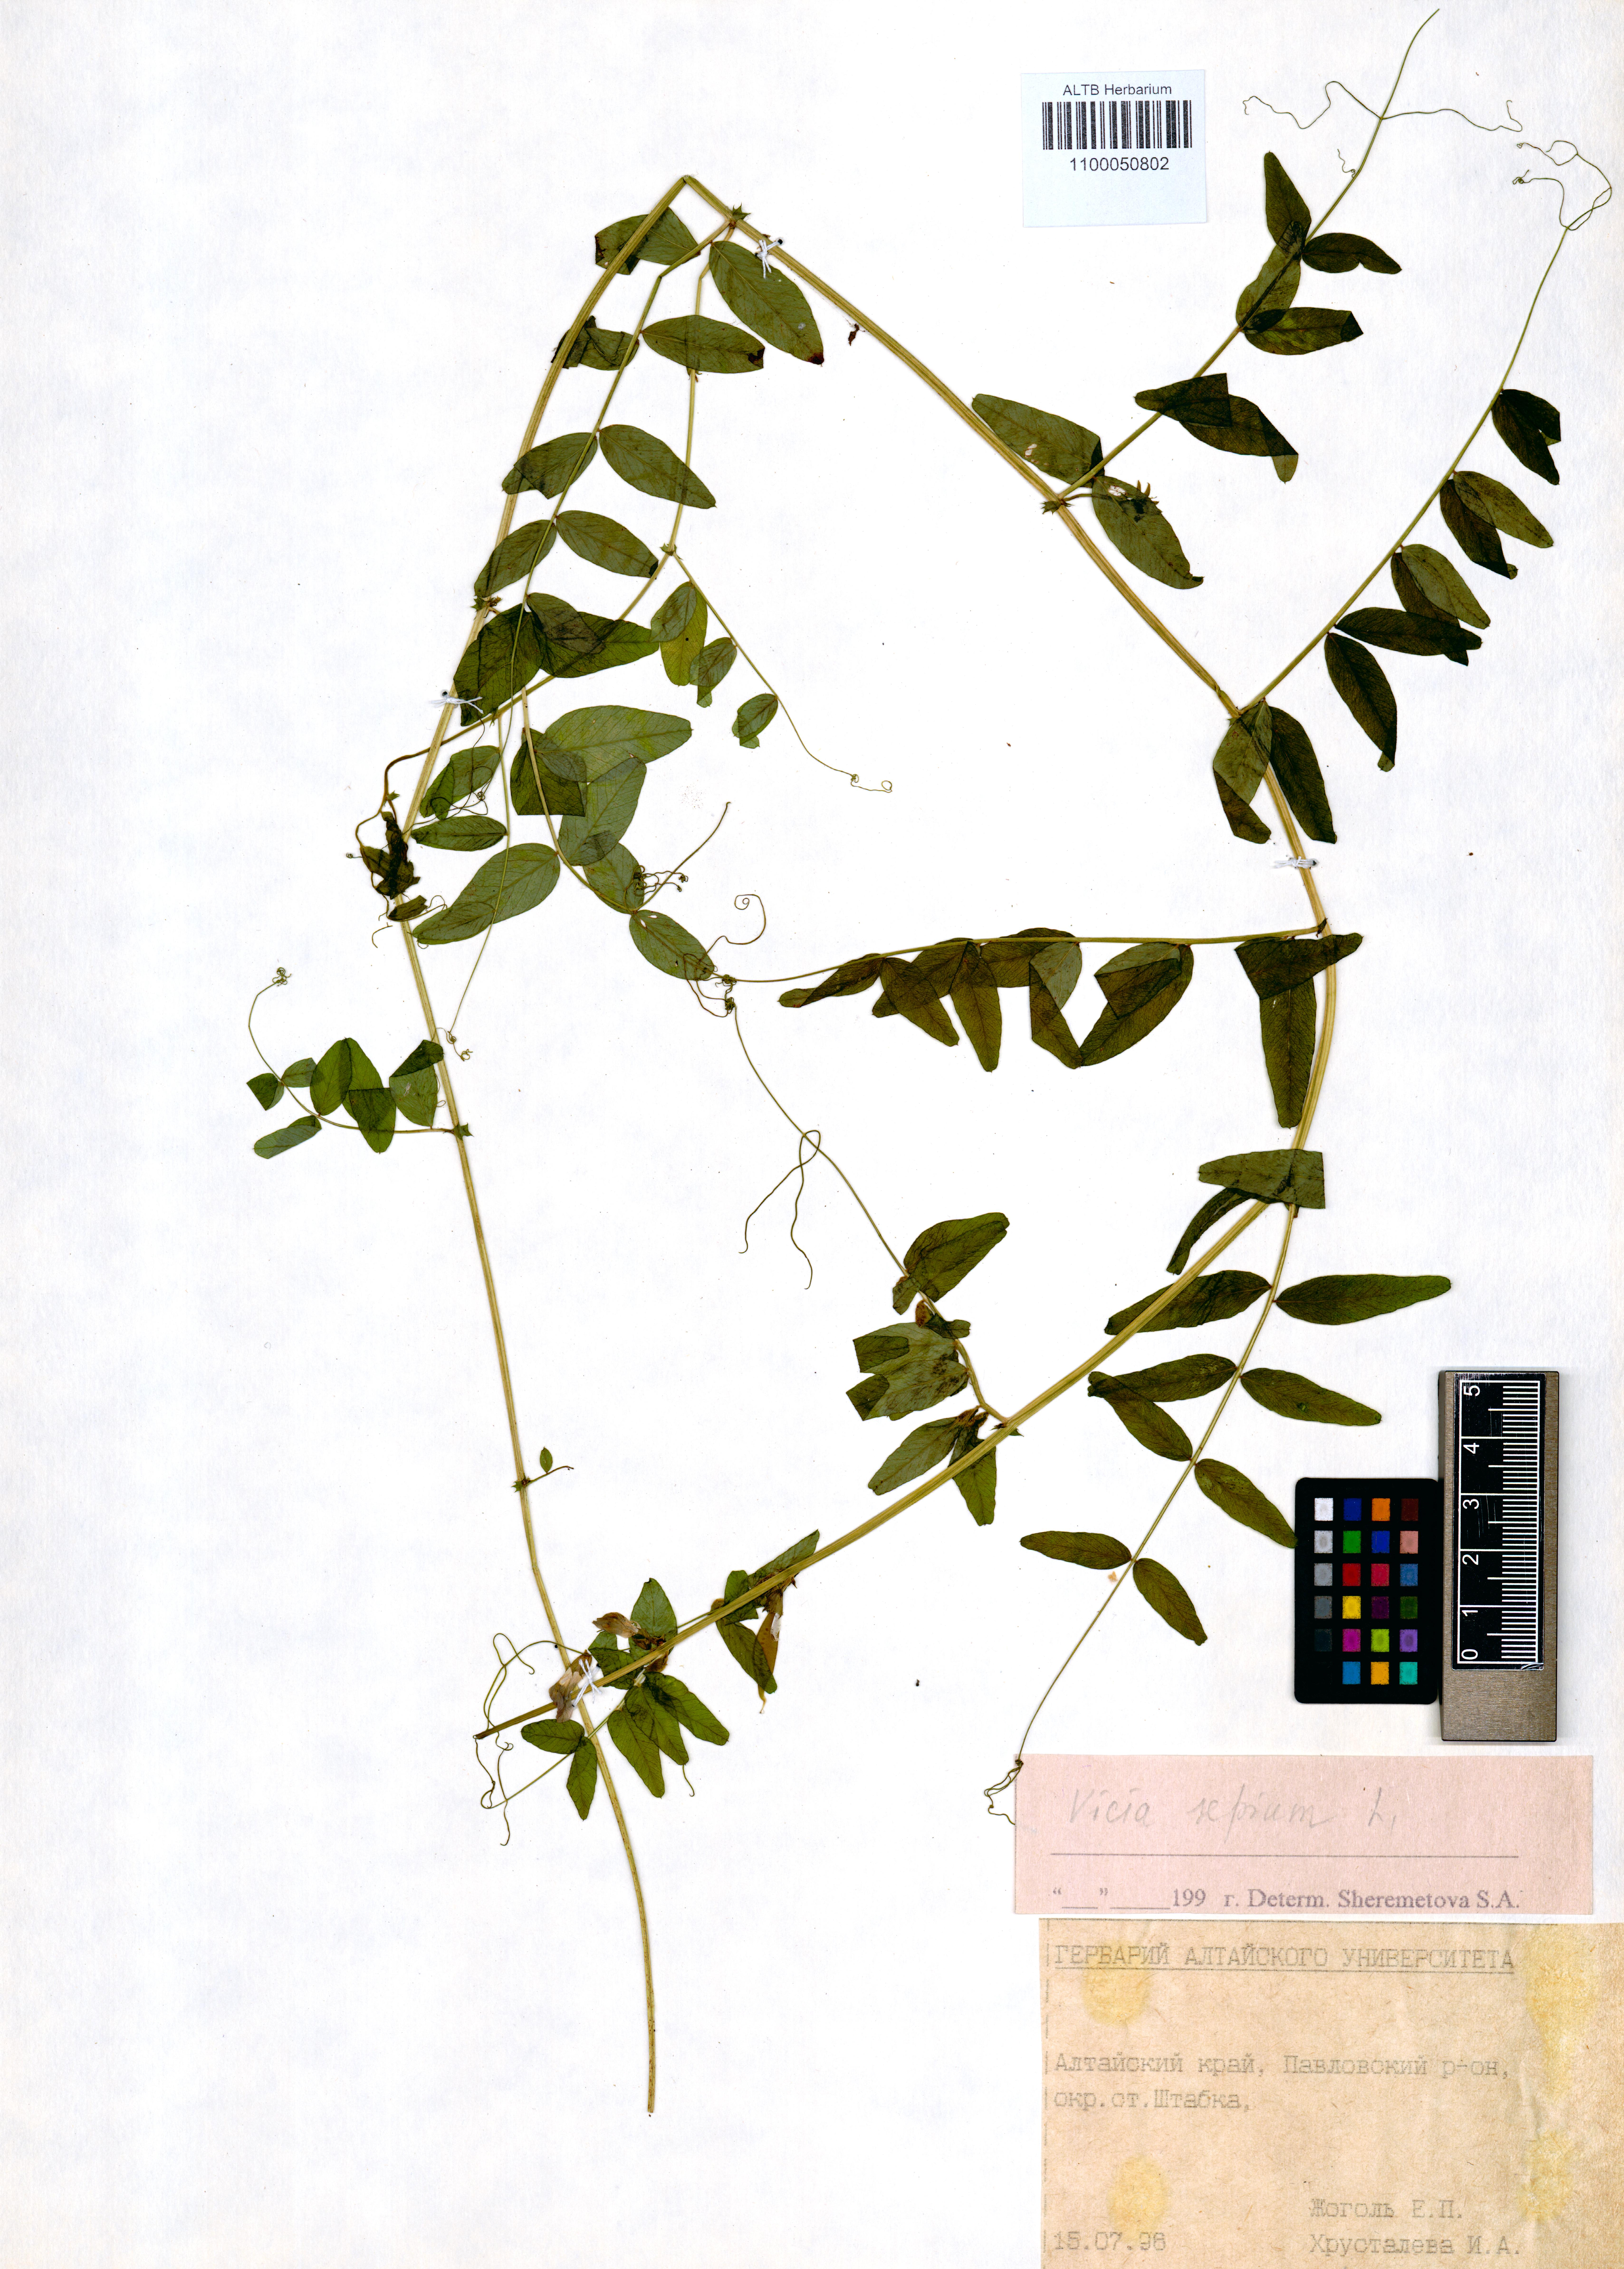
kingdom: Plantae
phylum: Tracheophyta
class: Magnoliopsida
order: Fabales
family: Fabaceae
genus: Vicia
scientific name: Vicia sepium
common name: Bush vetch
